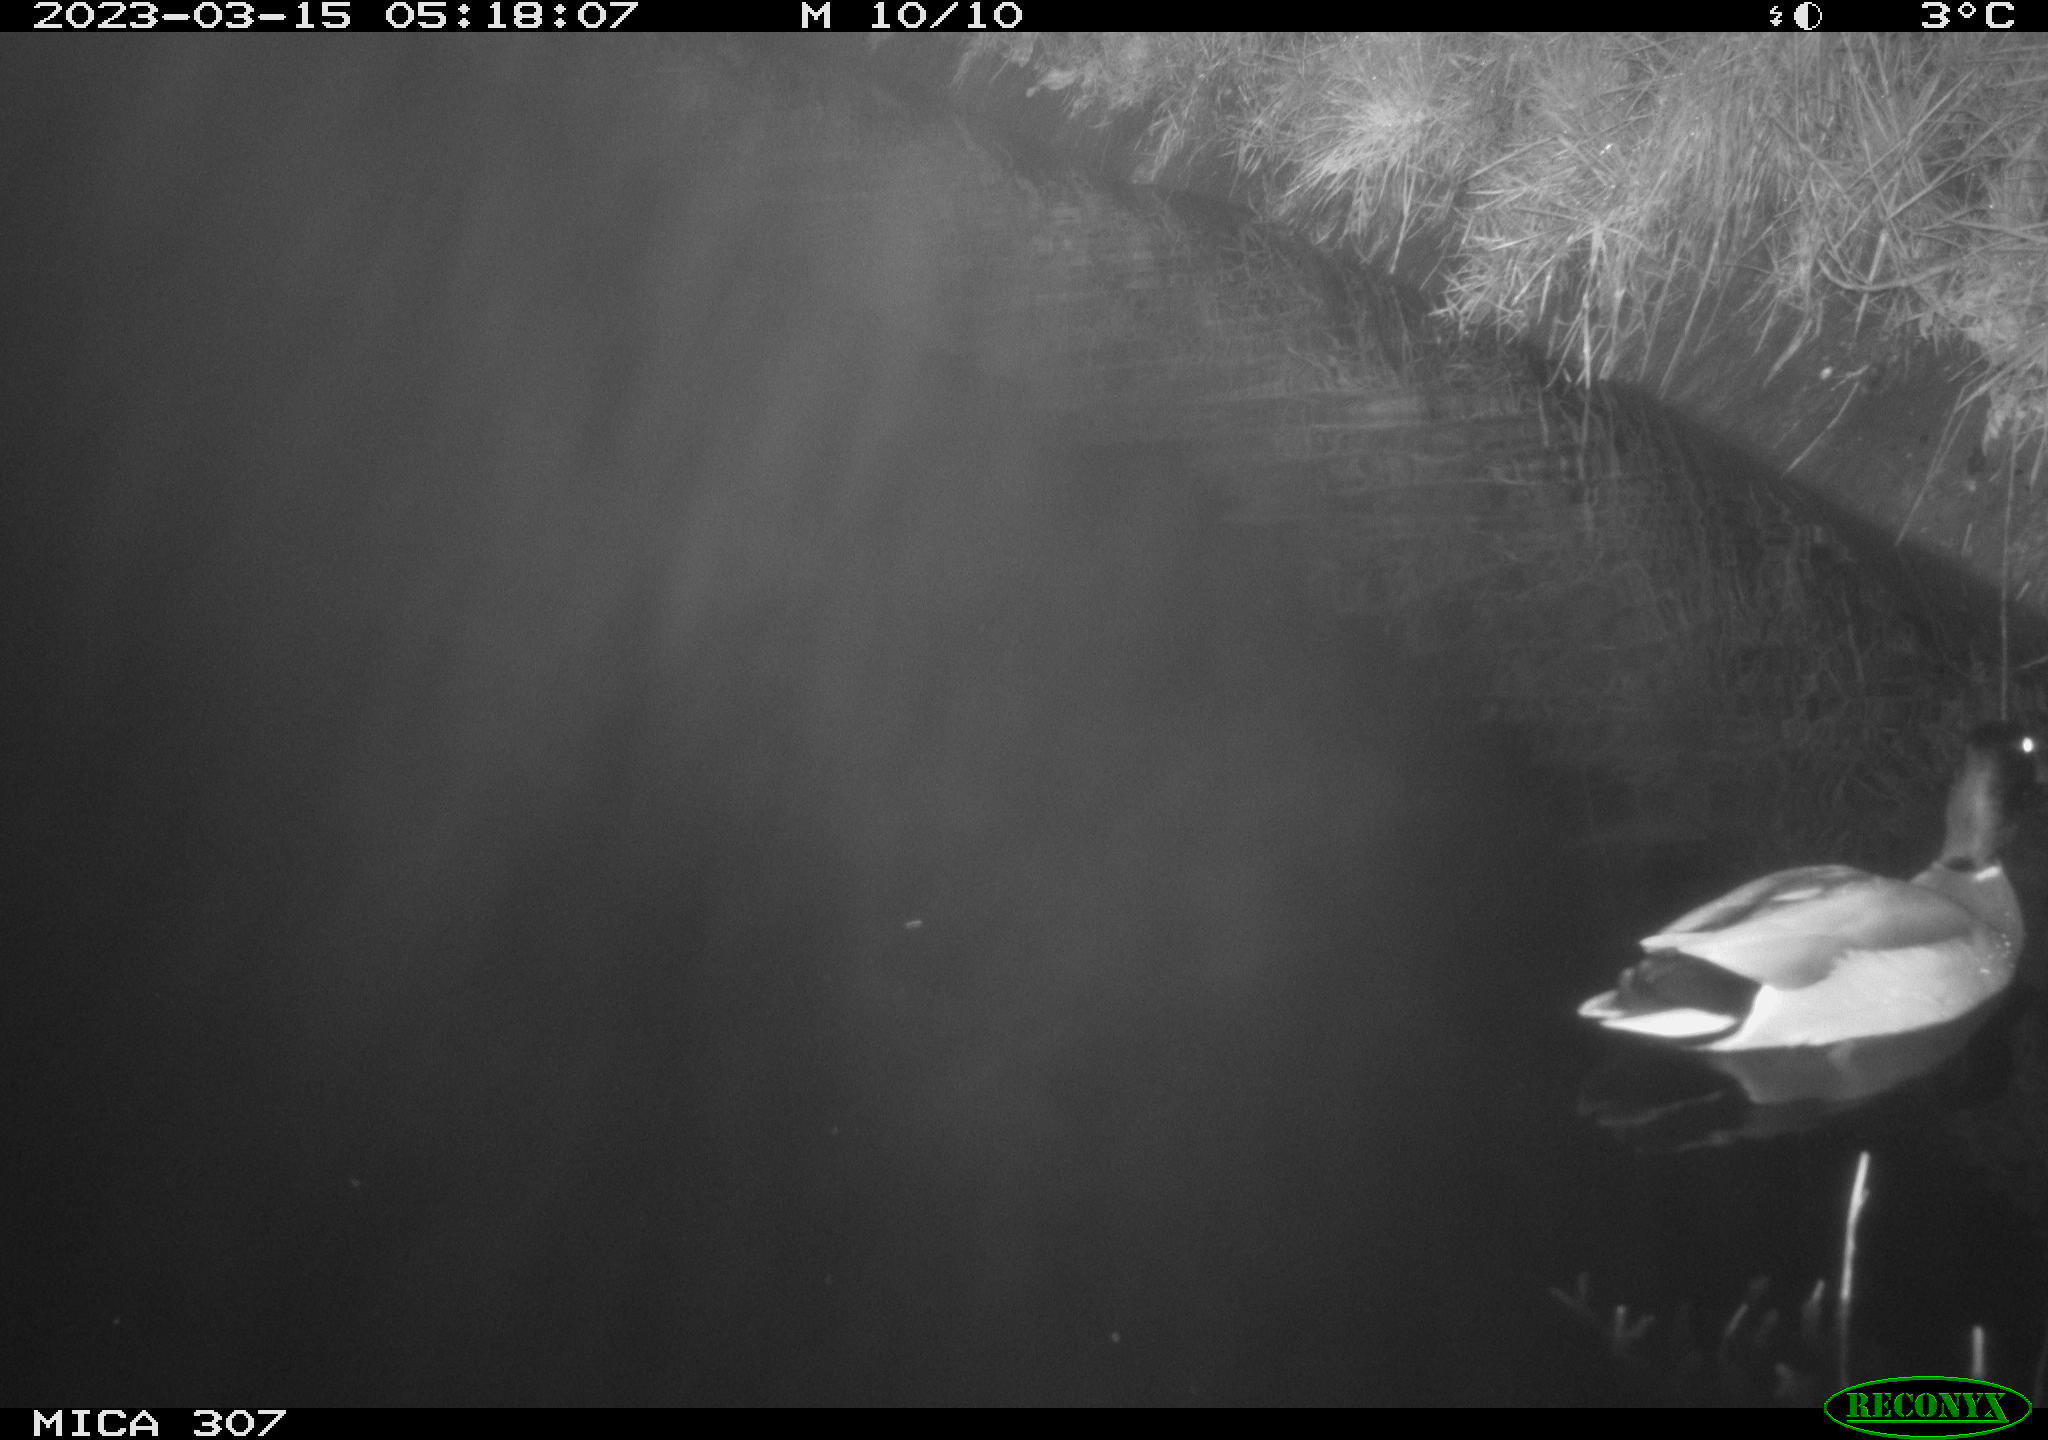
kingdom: Animalia
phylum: Chordata
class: Aves
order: Anseriformes
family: Anatidae
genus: Anas
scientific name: Anas
